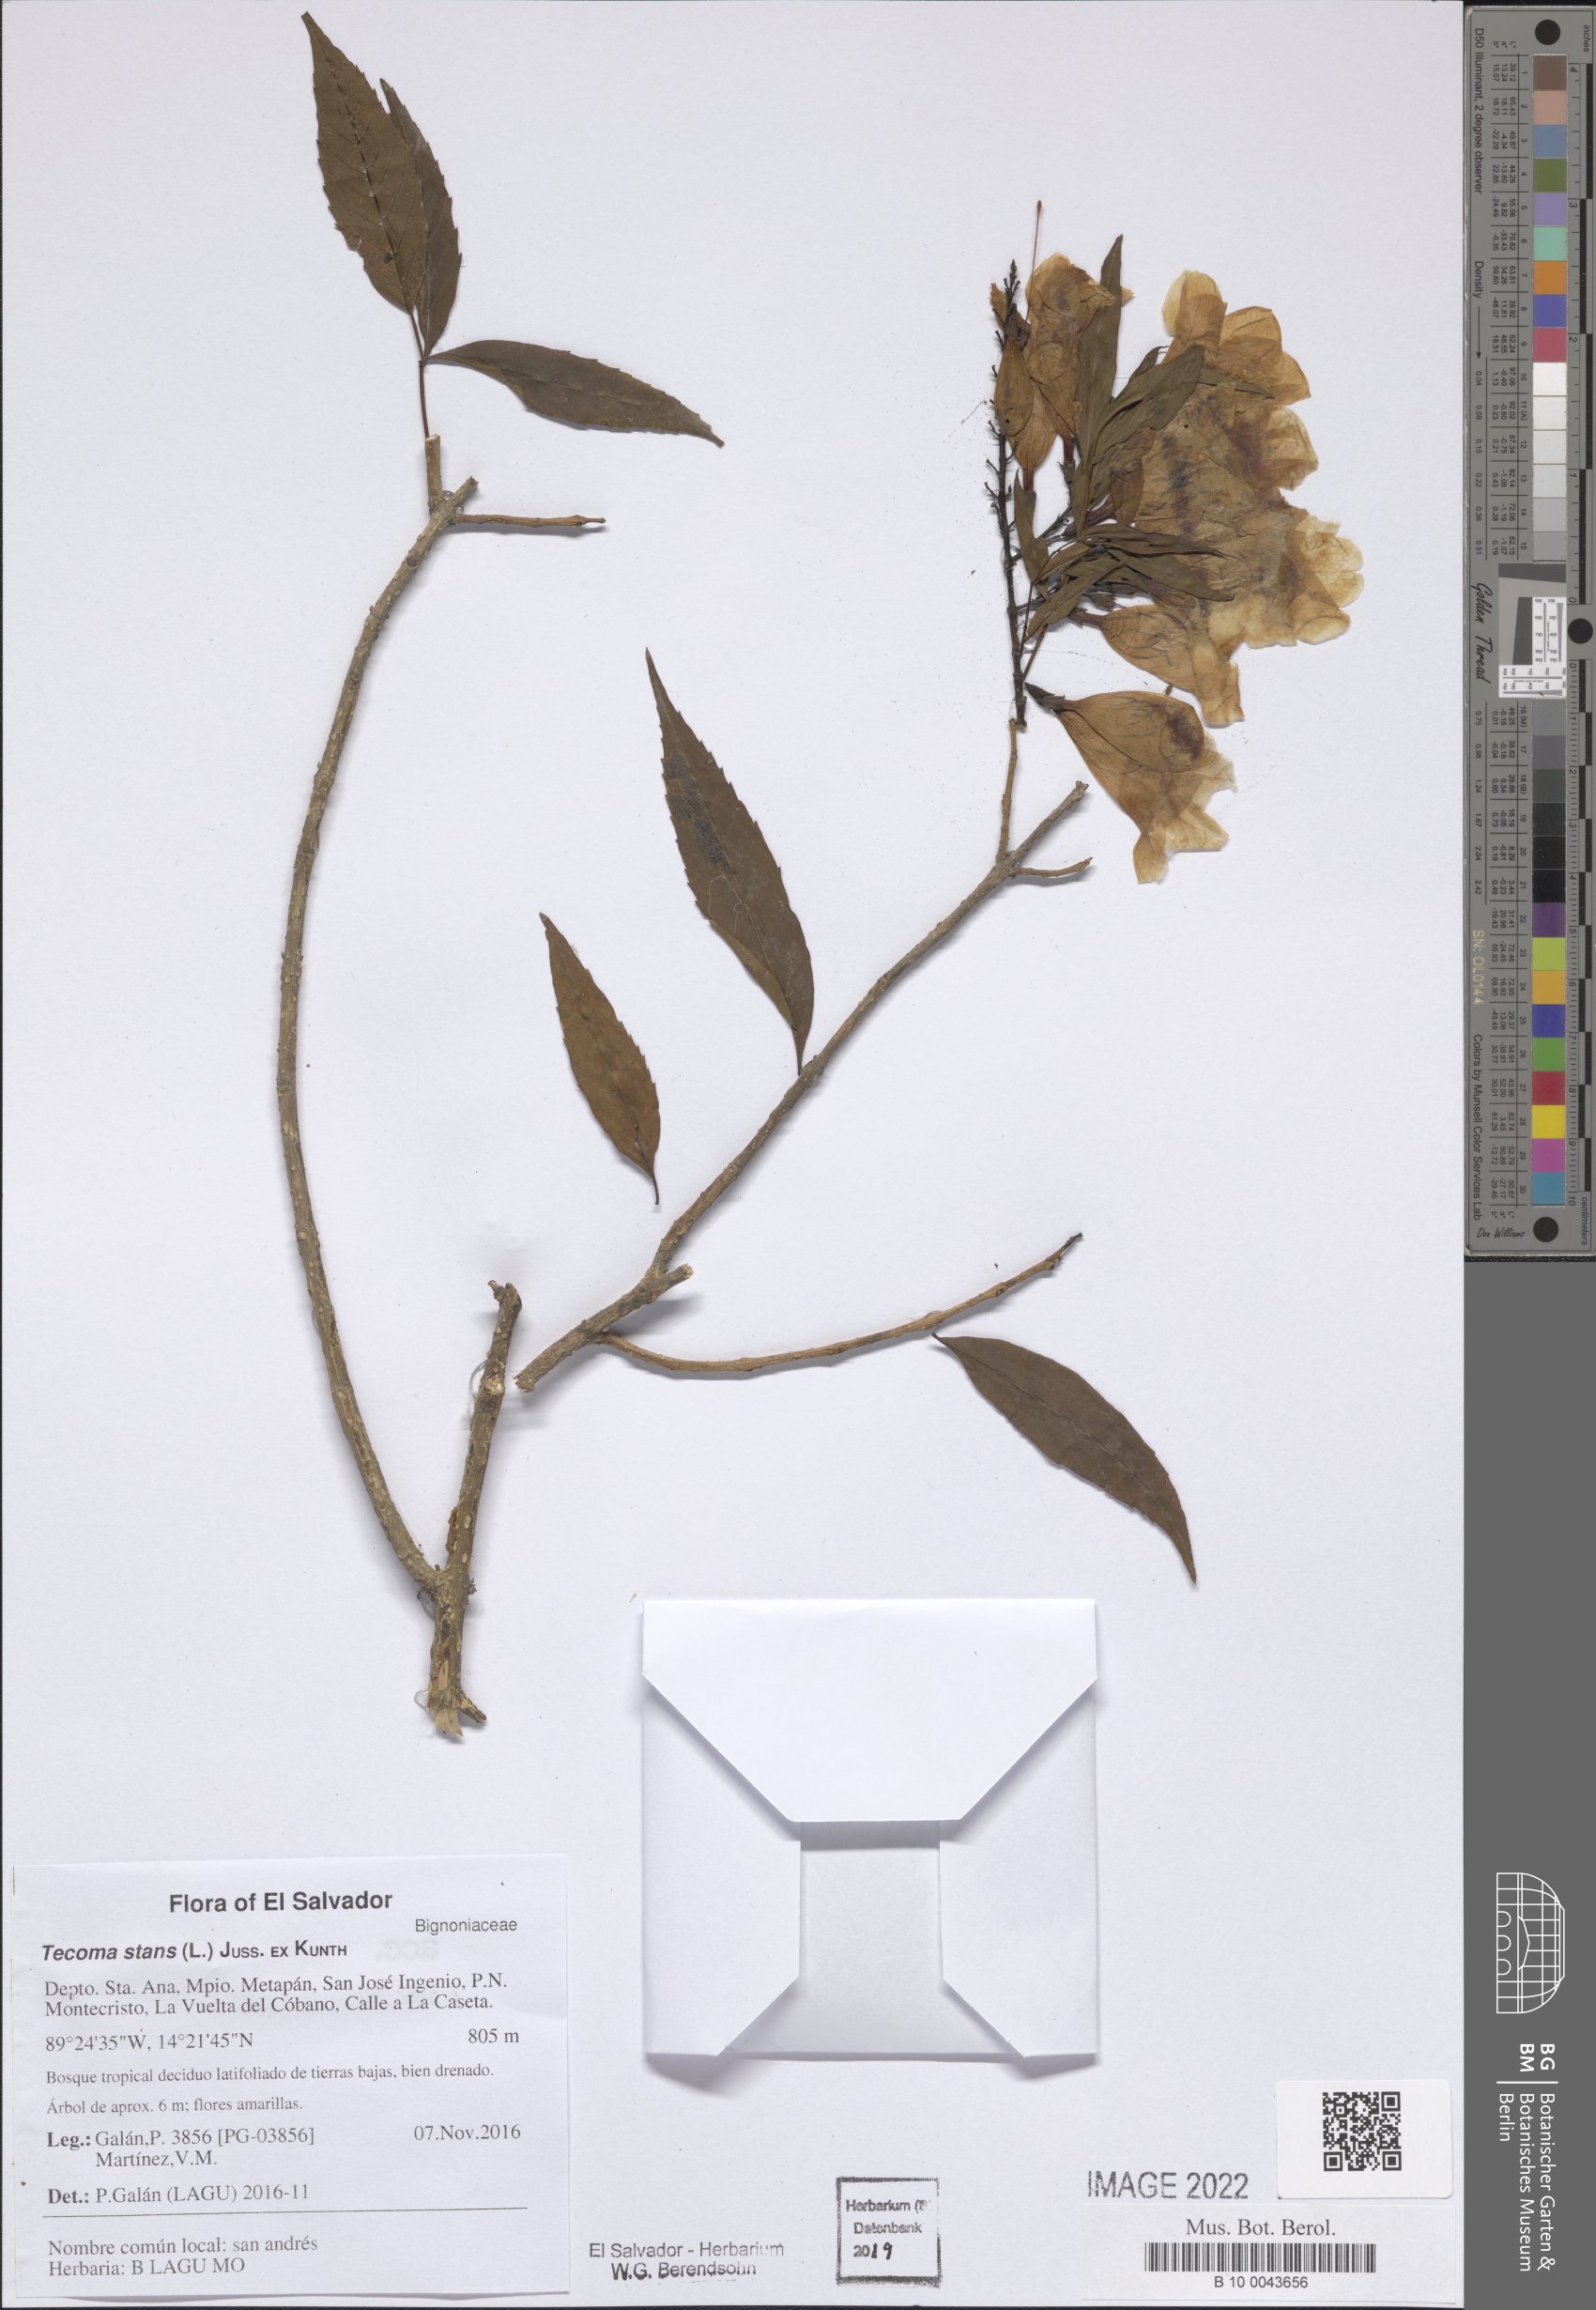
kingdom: Plantae
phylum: Tracheophyta
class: Magnoliopsida
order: Lamiales
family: Bignoniaceae
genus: Tecoma
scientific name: Tecoma stans
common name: Yellow trumpetbush
